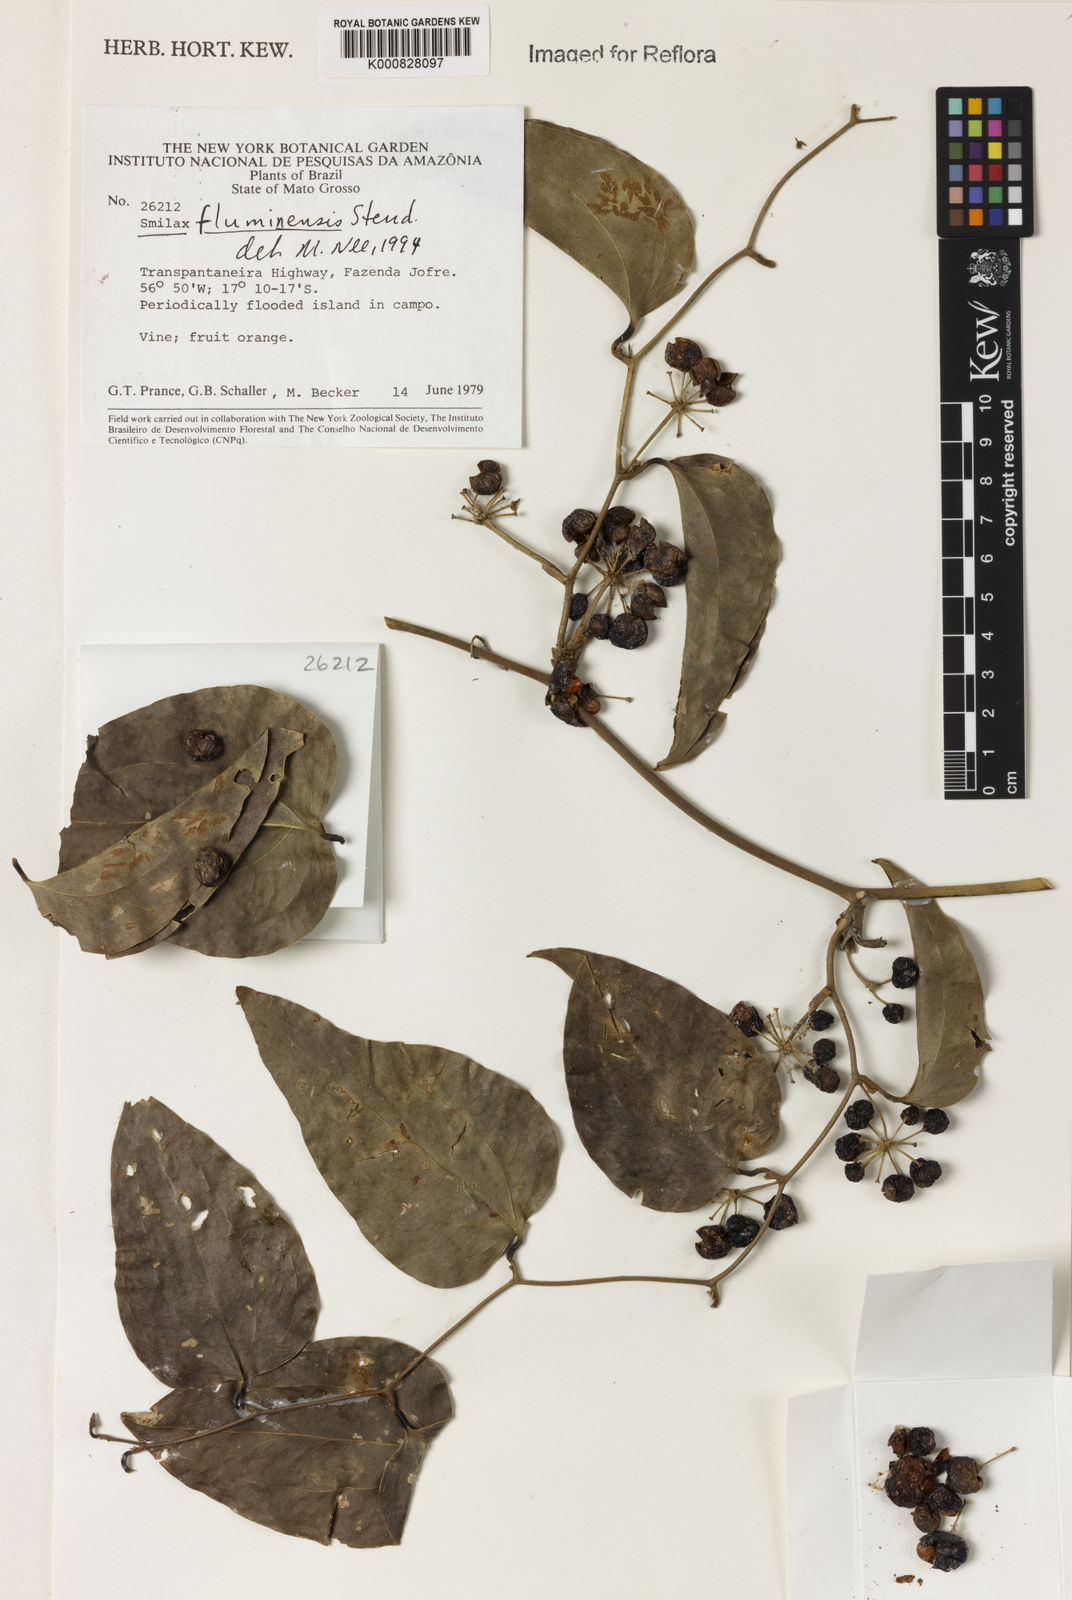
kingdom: Plantae
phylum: Tracheophyta
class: Liliopsida
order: Liliales
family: Smilacaceae
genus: Smilax
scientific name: Smilax fluminensis
